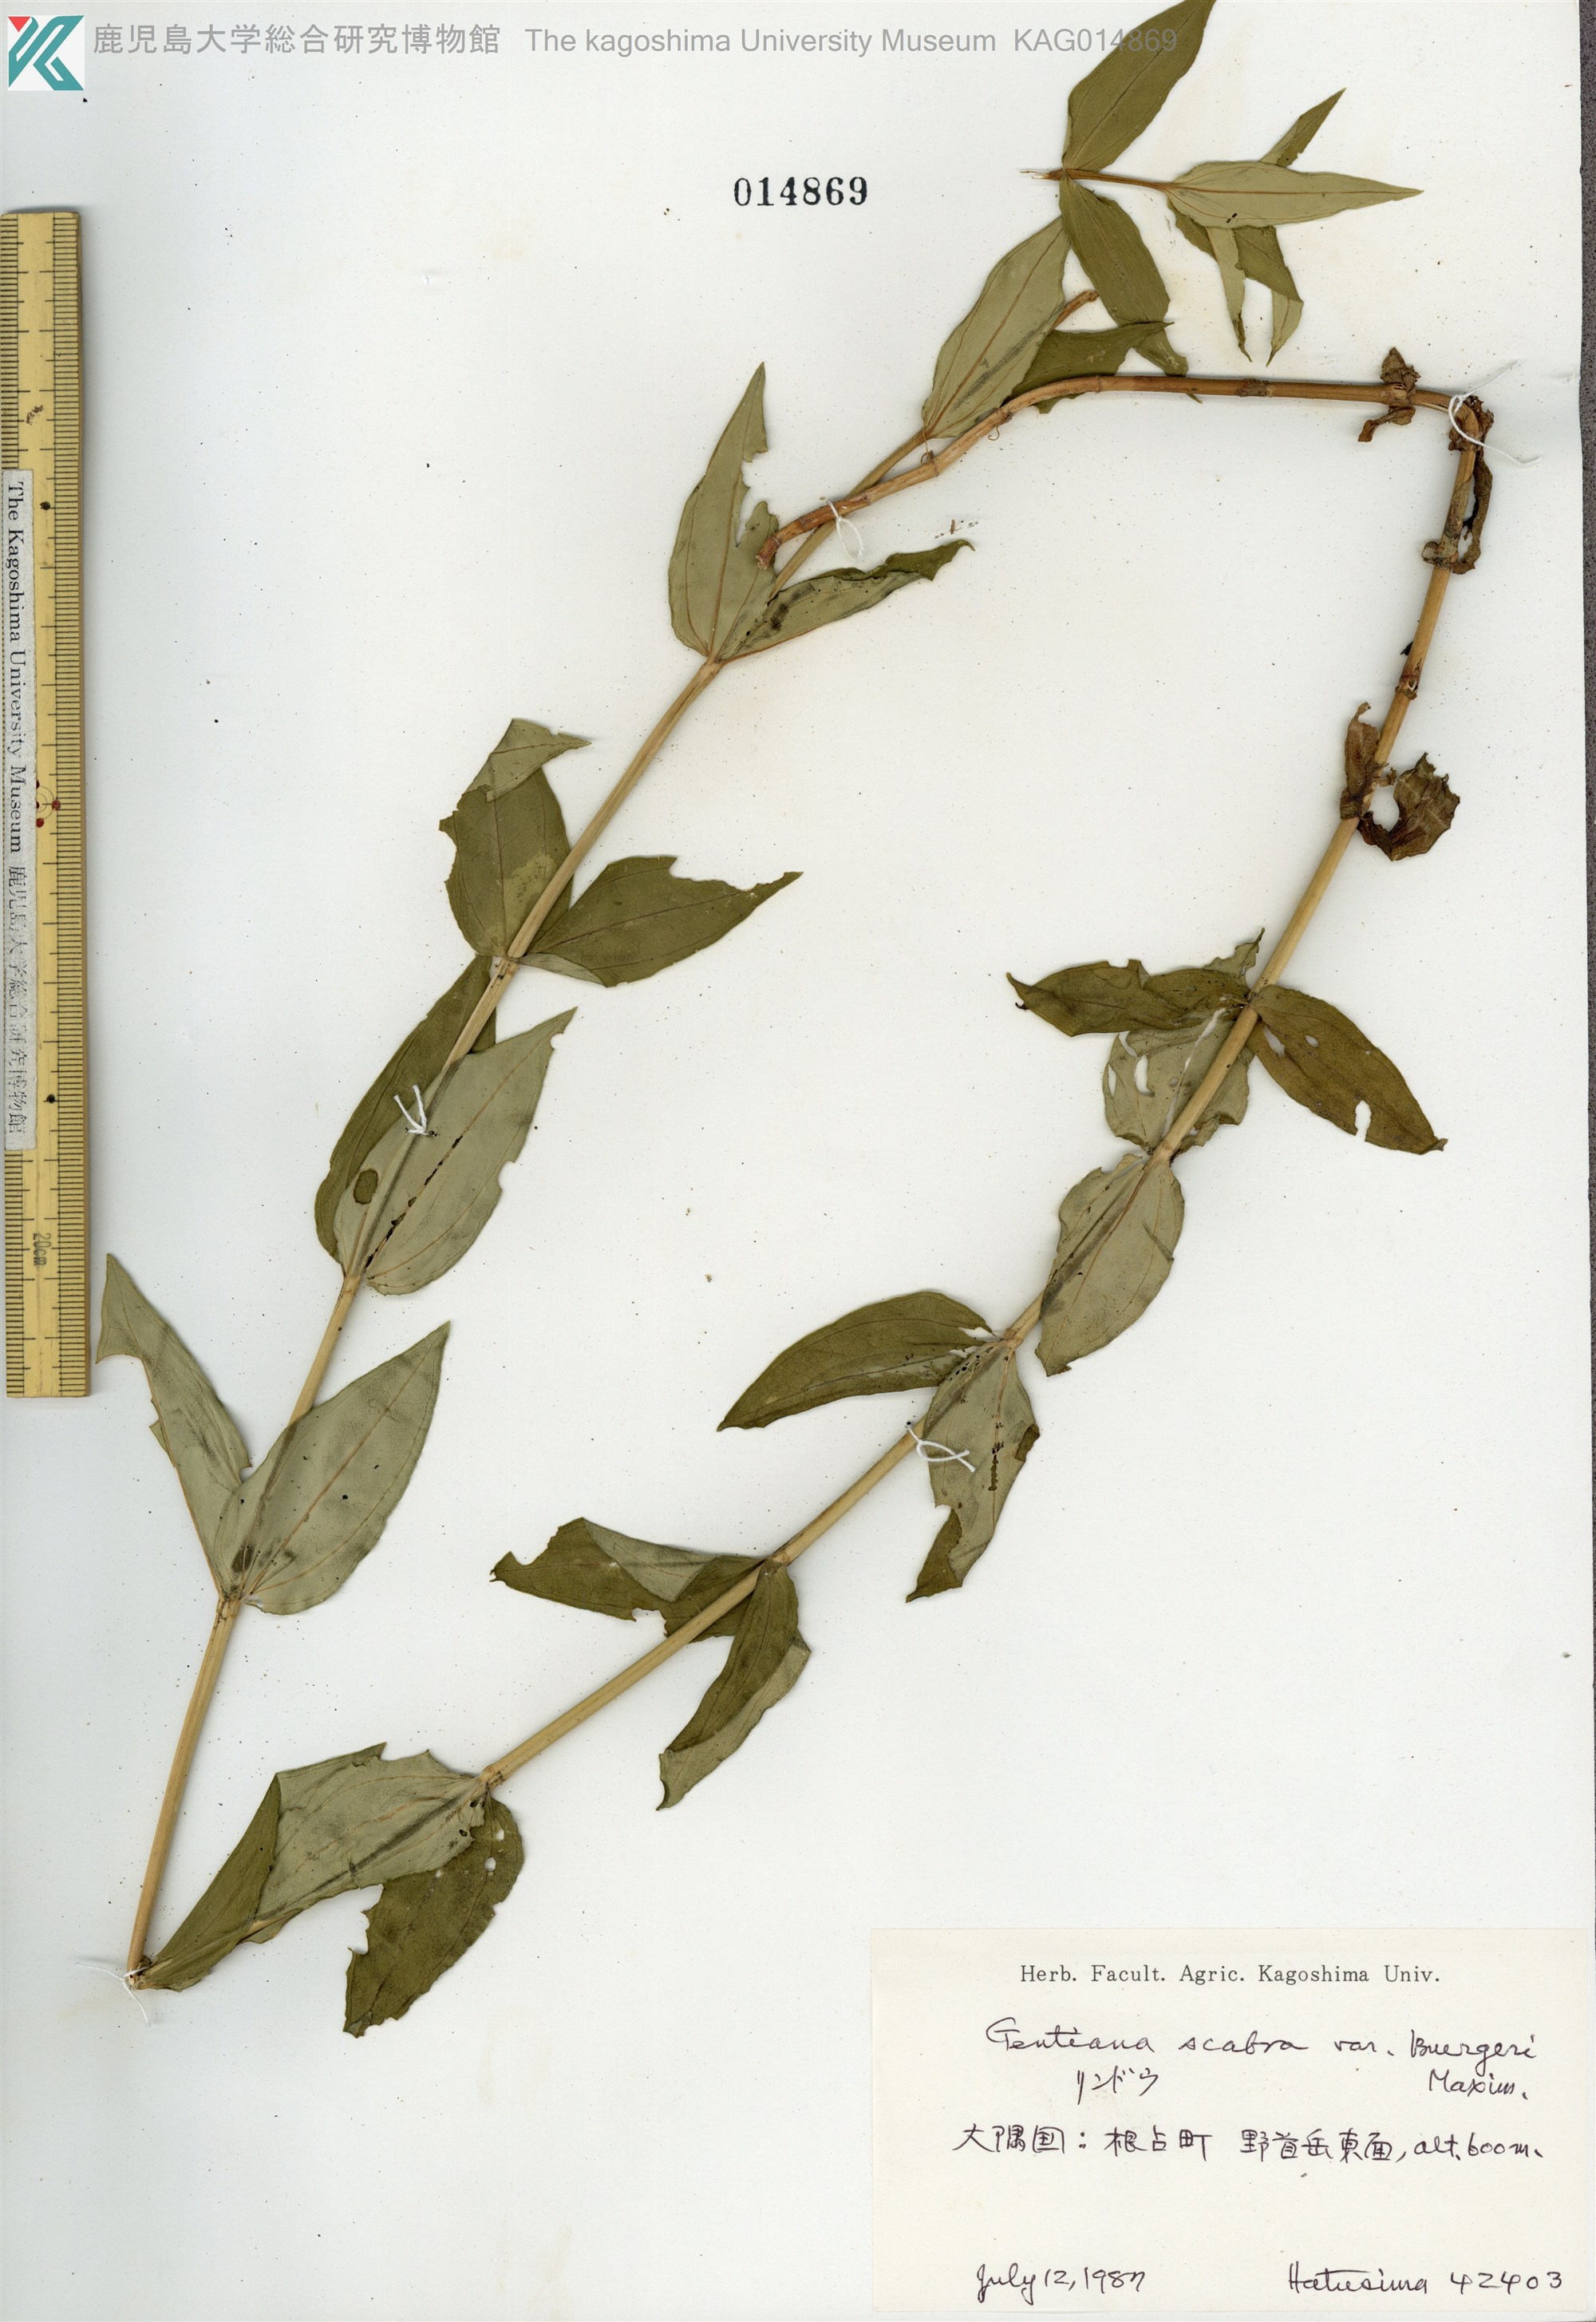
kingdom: Plantae
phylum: Tracheophyta
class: Magnoliopsida
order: Gentianales
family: Gentianaceae
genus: Gentiana
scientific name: Gentiana scabra
